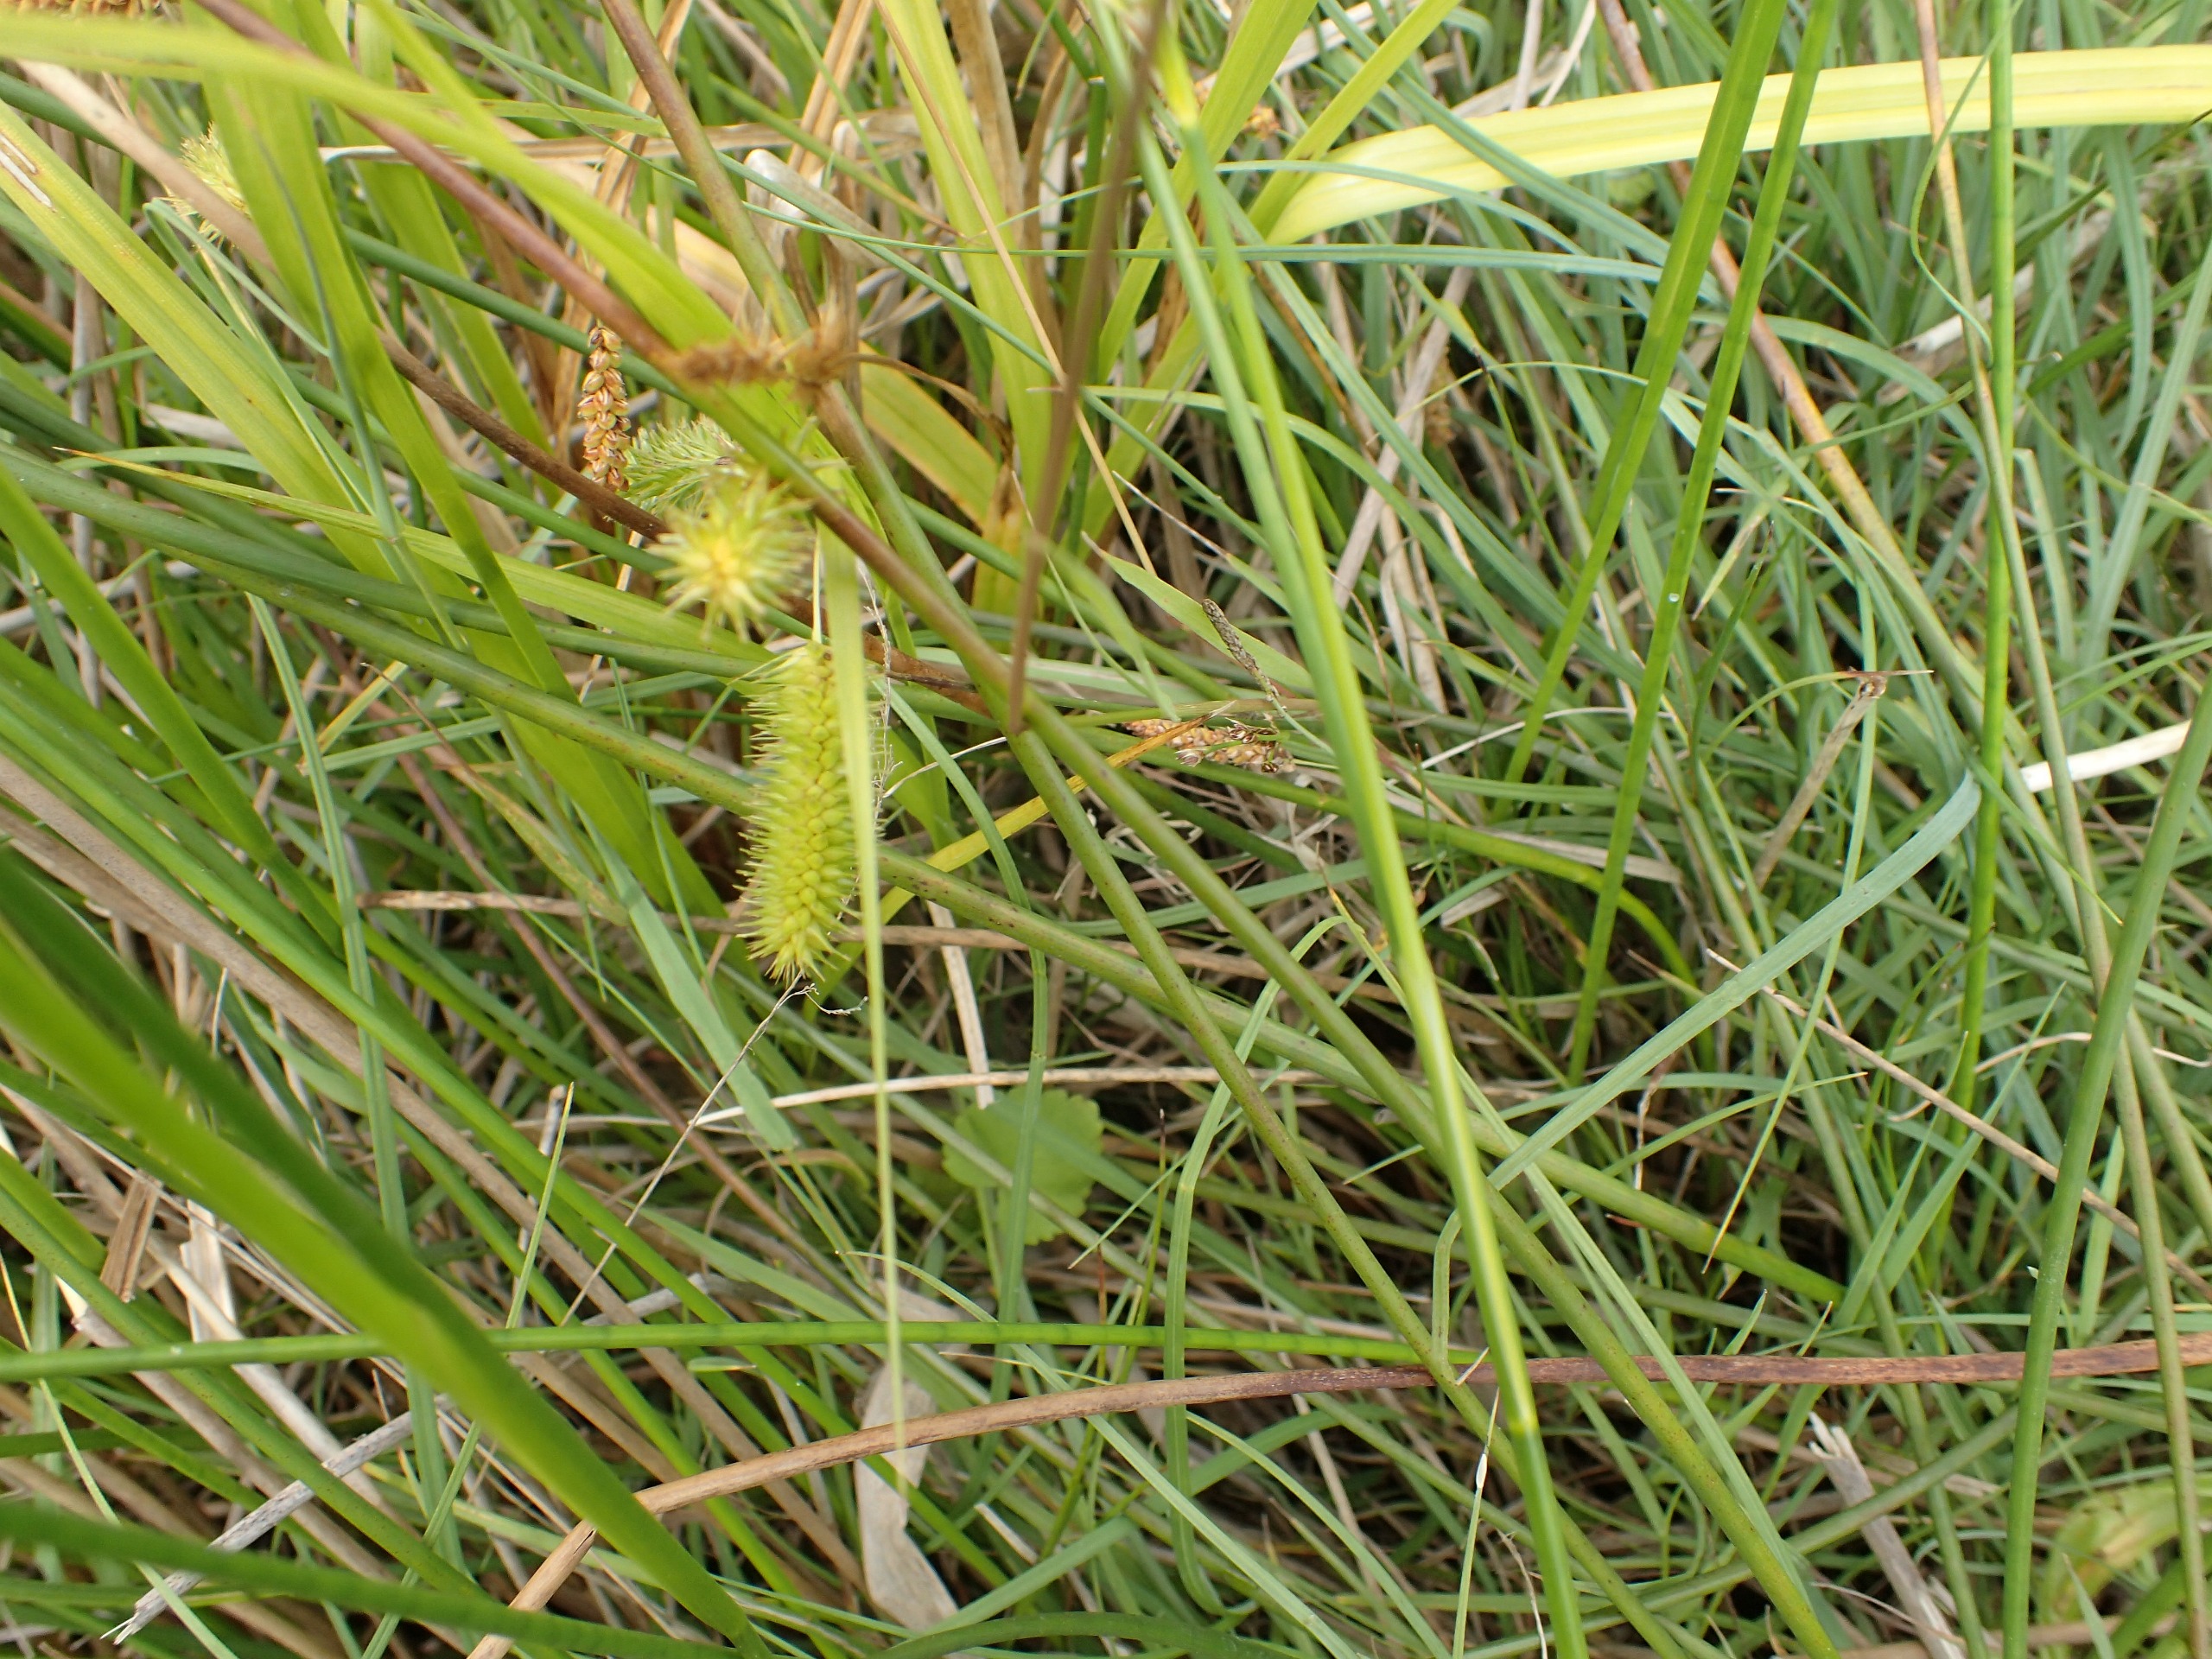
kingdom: Plantae
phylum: Tracheophyta
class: Liliopsida
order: Poales
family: Cyperaceae
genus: Carex
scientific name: Carex pseudocyperus
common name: Knippe-star
